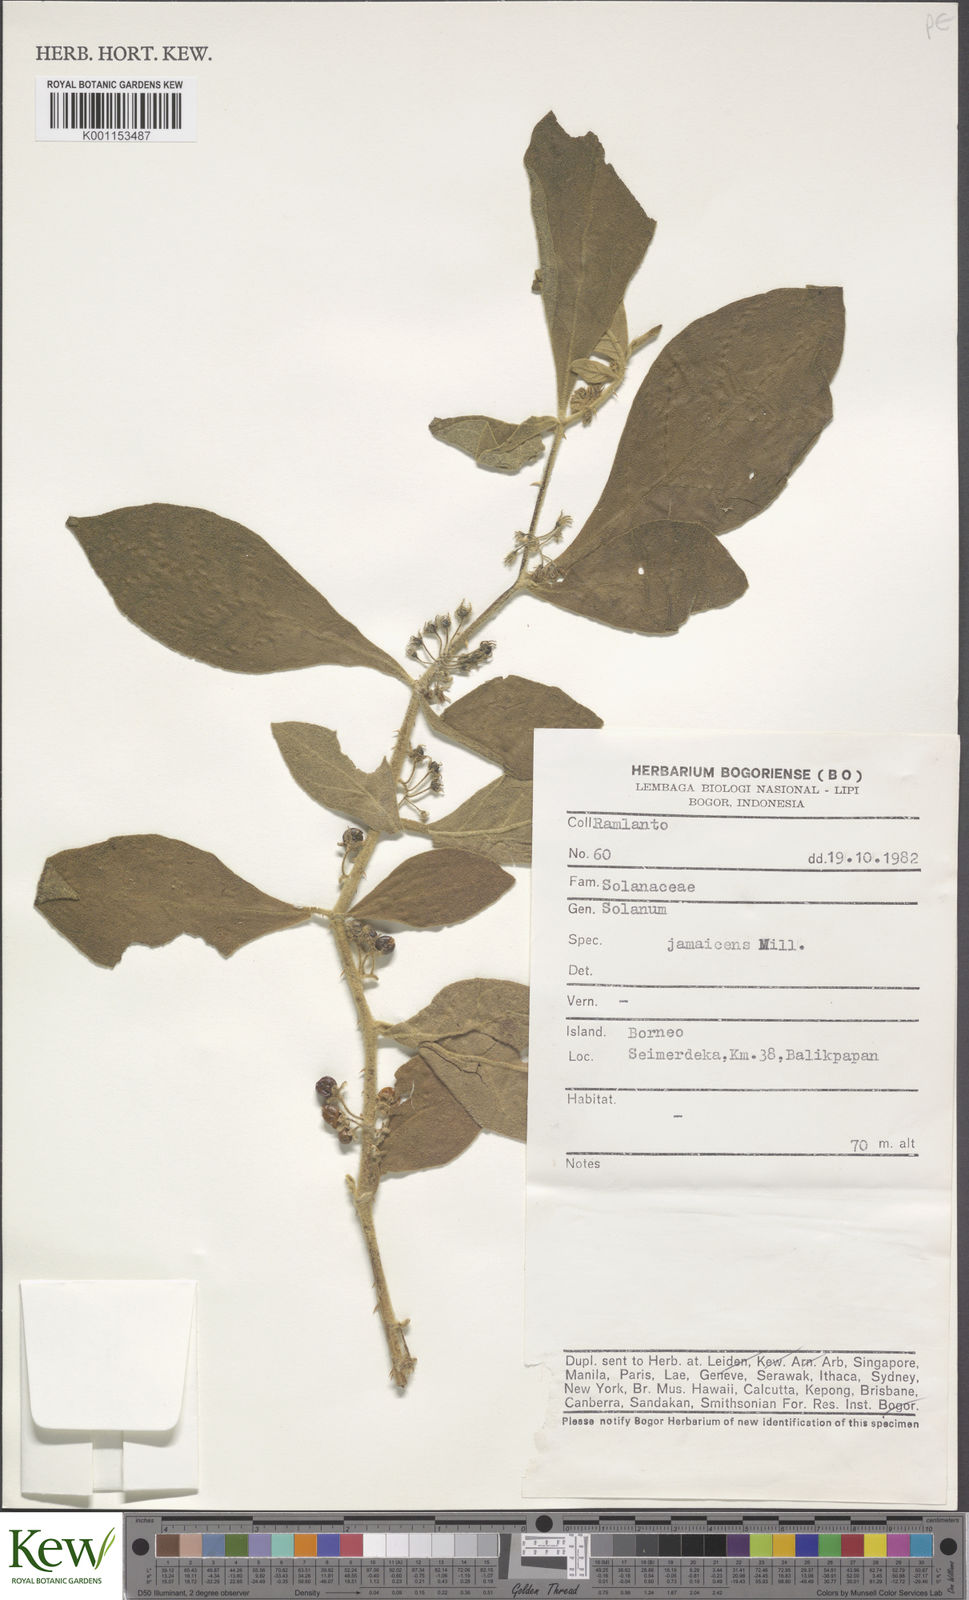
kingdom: Plantae
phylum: Tracheophyta
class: Magnoliopsida
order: Solanales
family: Solanaceae
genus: Solanum
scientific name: Solanum jamaicense
